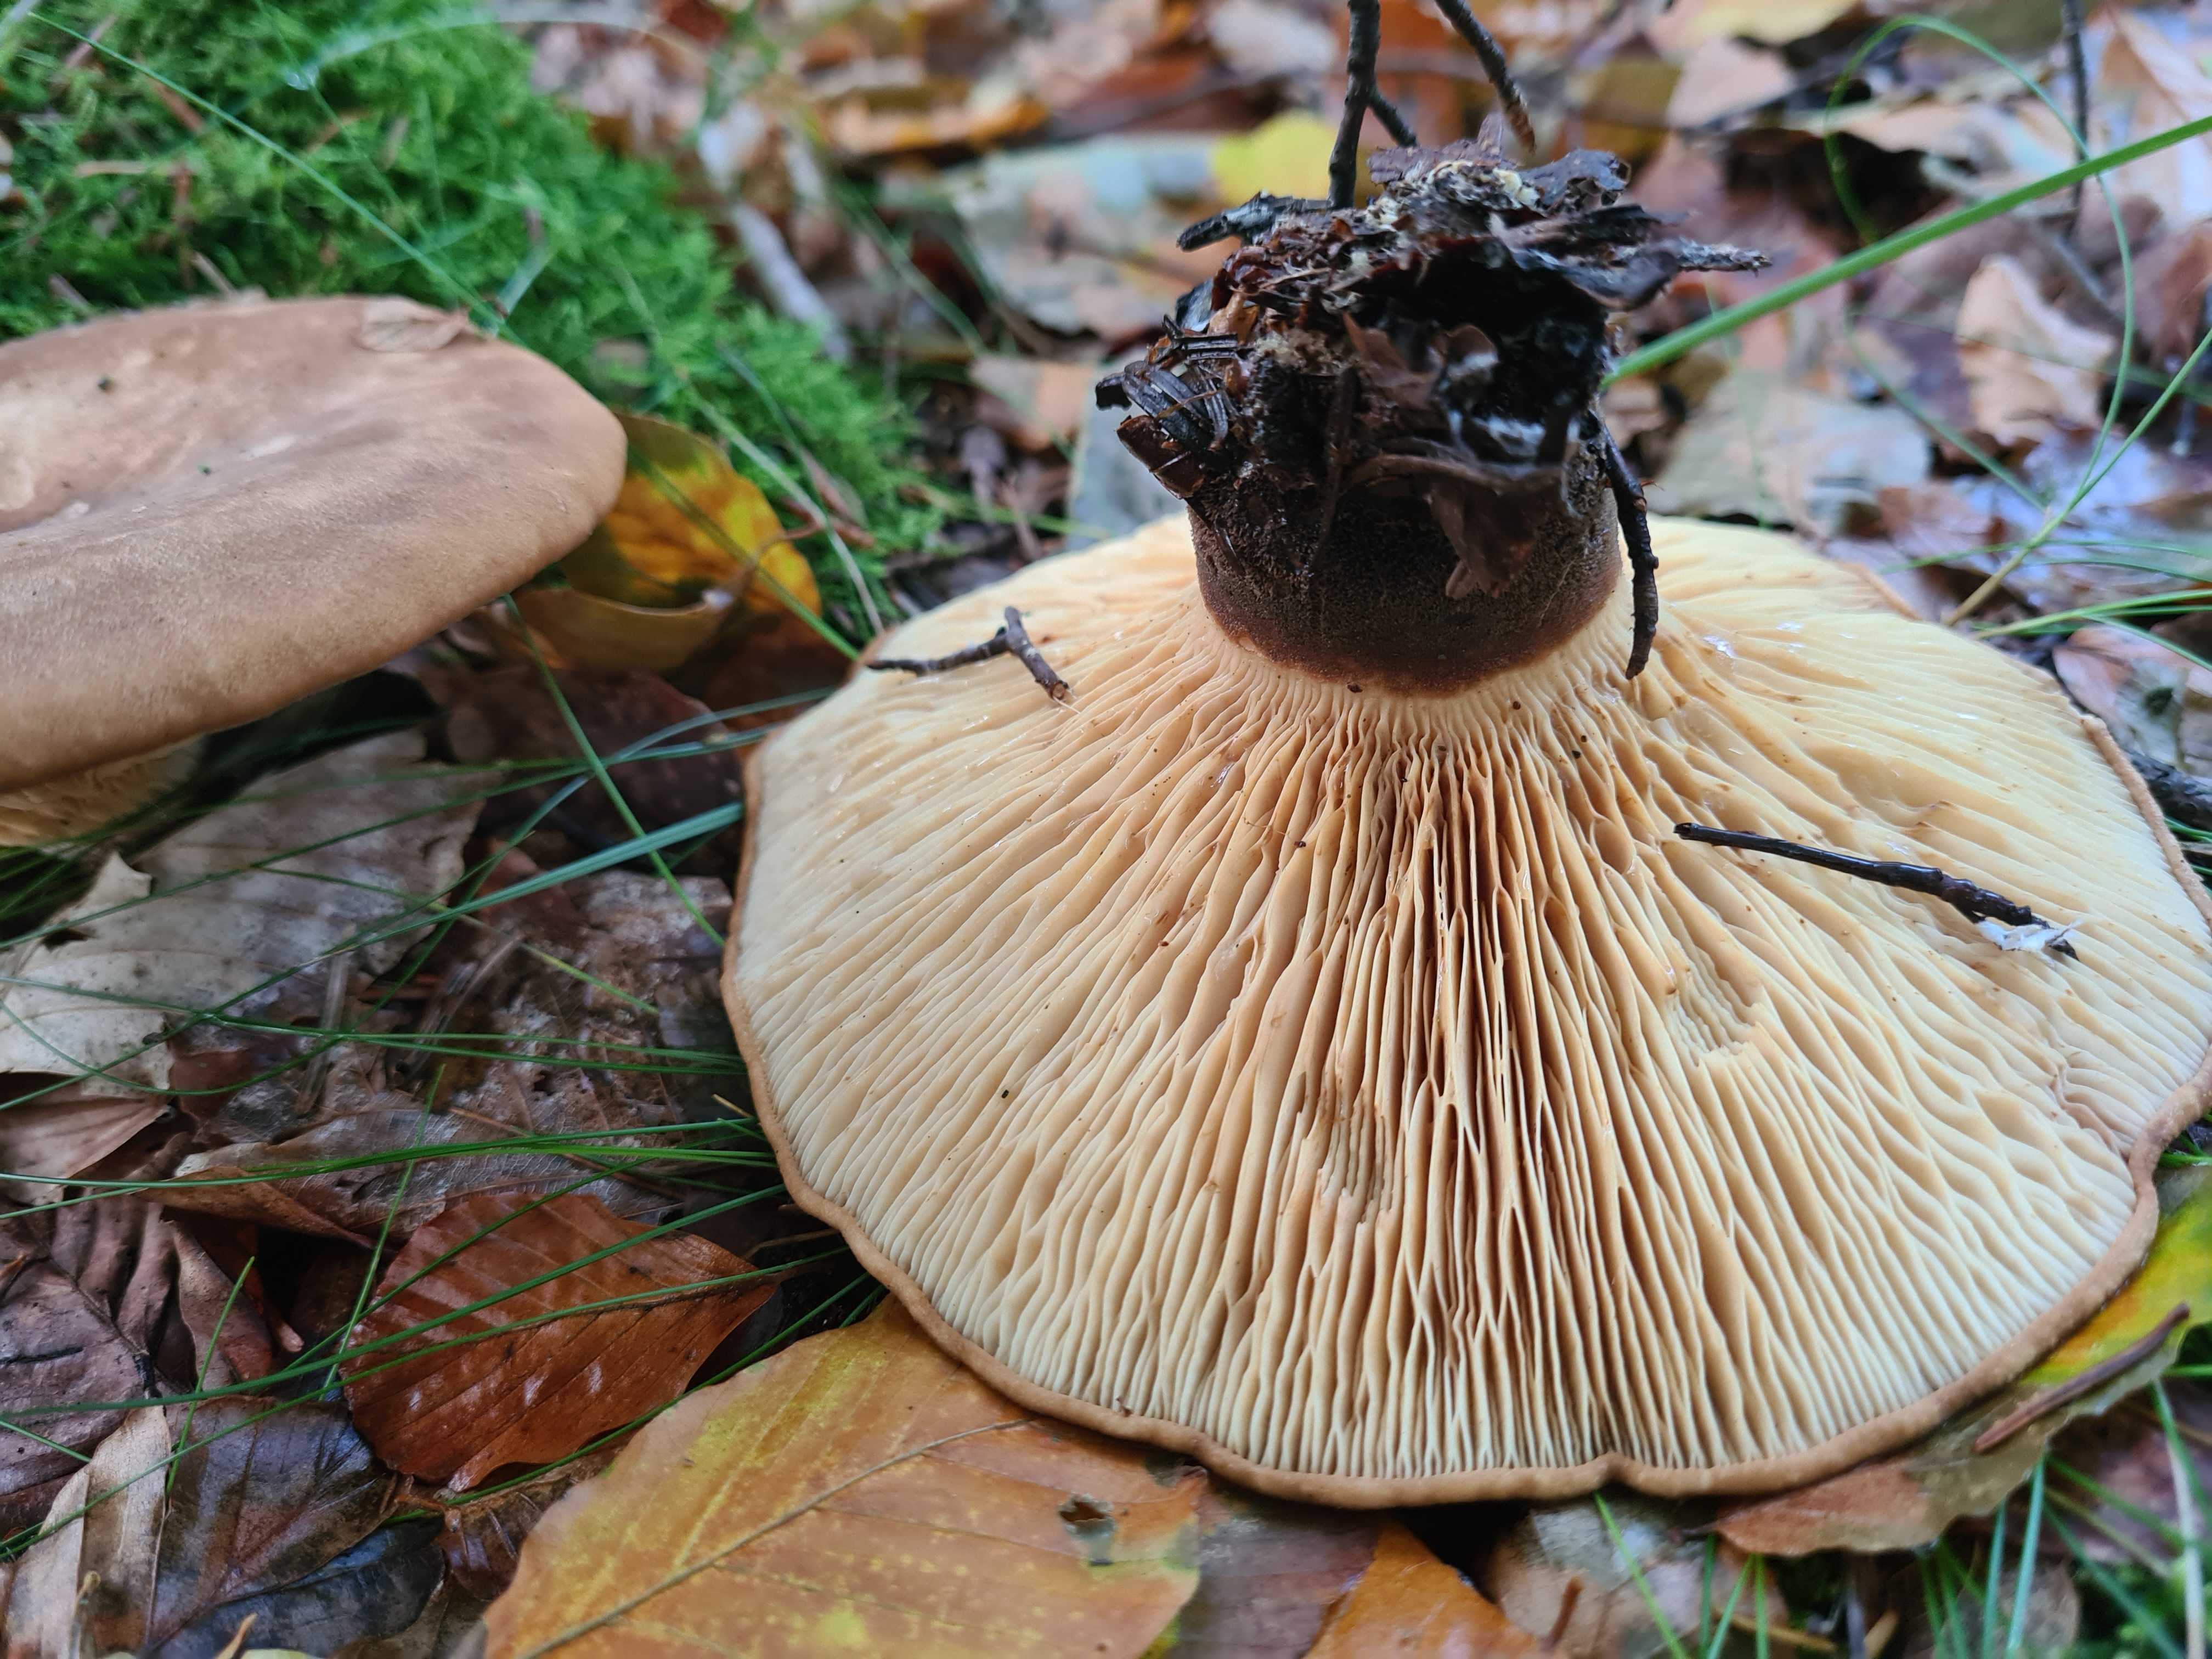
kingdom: Fungi
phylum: Basidiomycota
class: Agaricomycetes
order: Boletales
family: Tapinellaceae
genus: Tapinella
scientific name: Tapinella atrotomentosa
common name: sortfiltet viftesvamp
